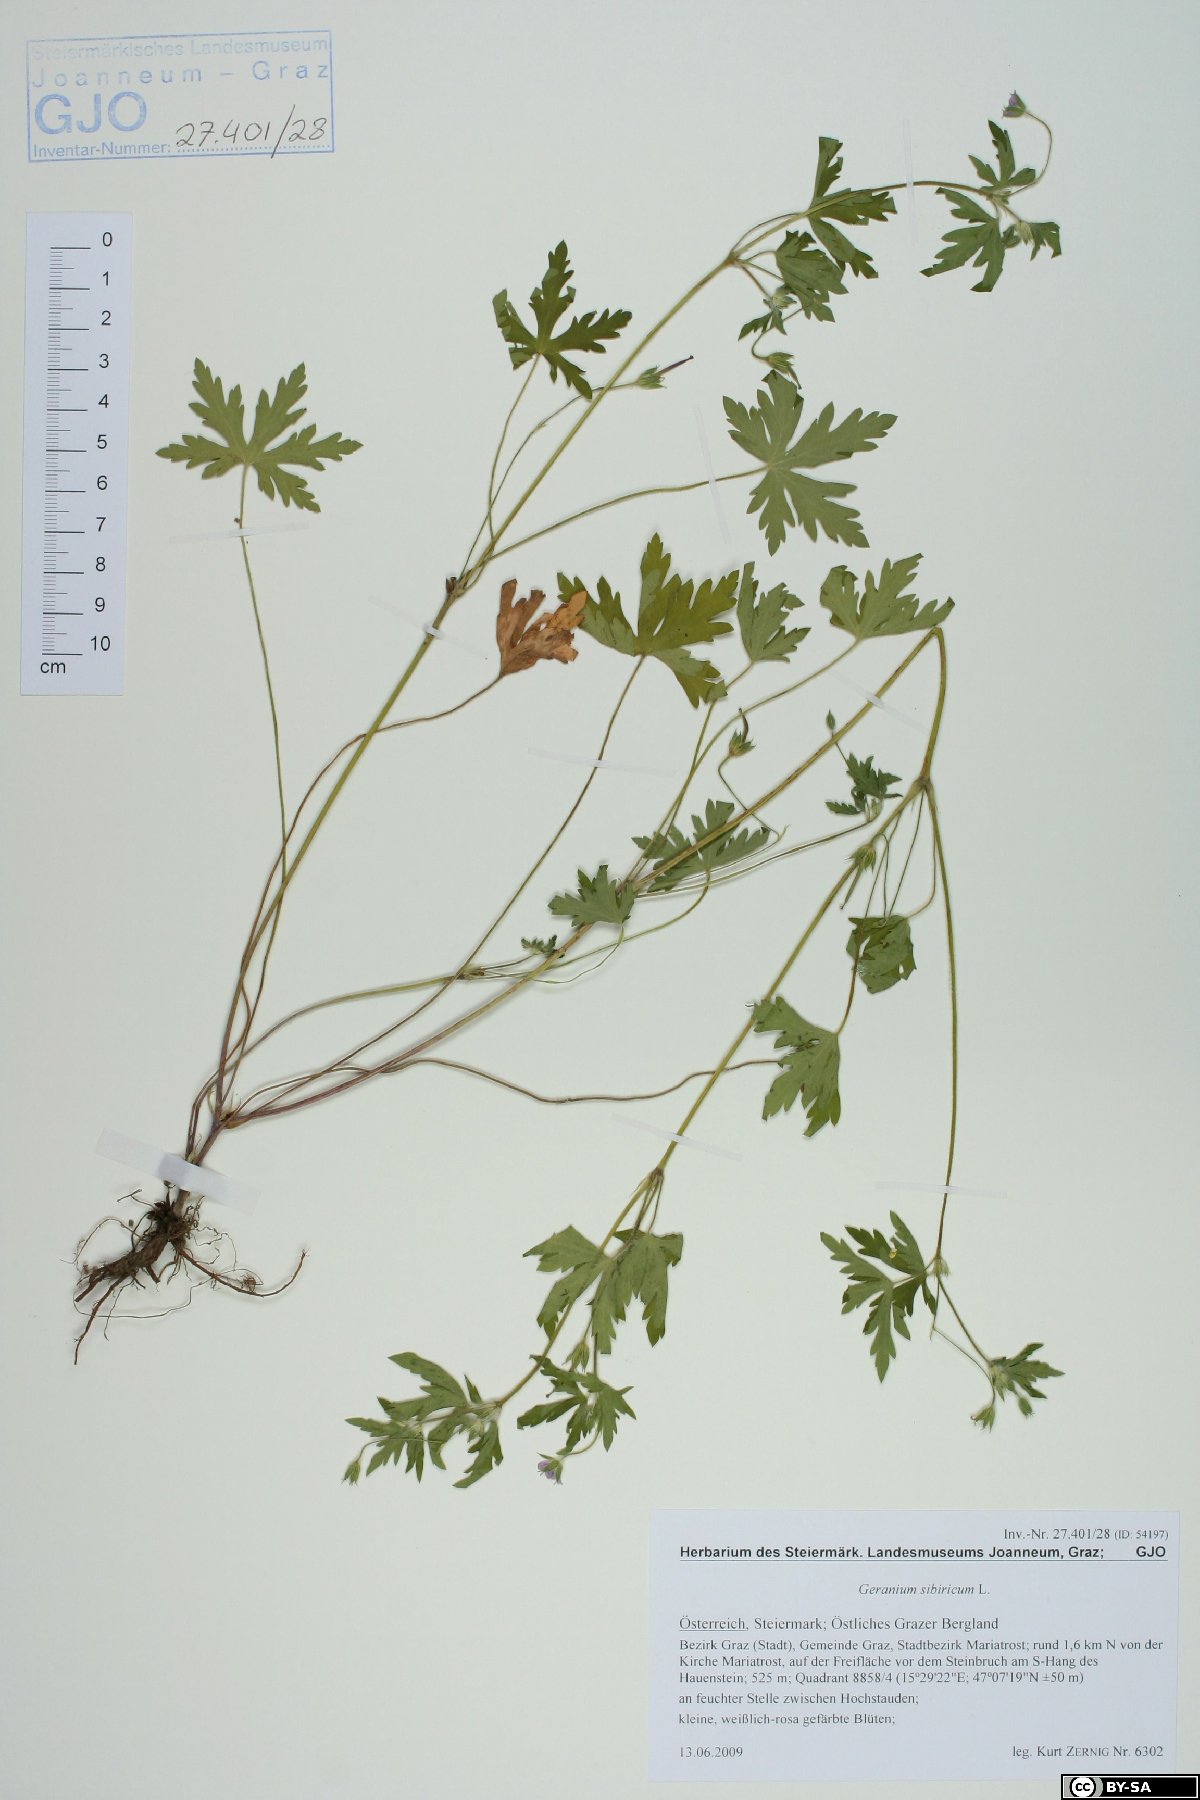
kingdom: Plantae
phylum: Tracheophyta
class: Magnoliopsida
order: Geraniales
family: Geraniaceae
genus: Geranium
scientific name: Geranium sibiricum
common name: Siberian crane's-bill
